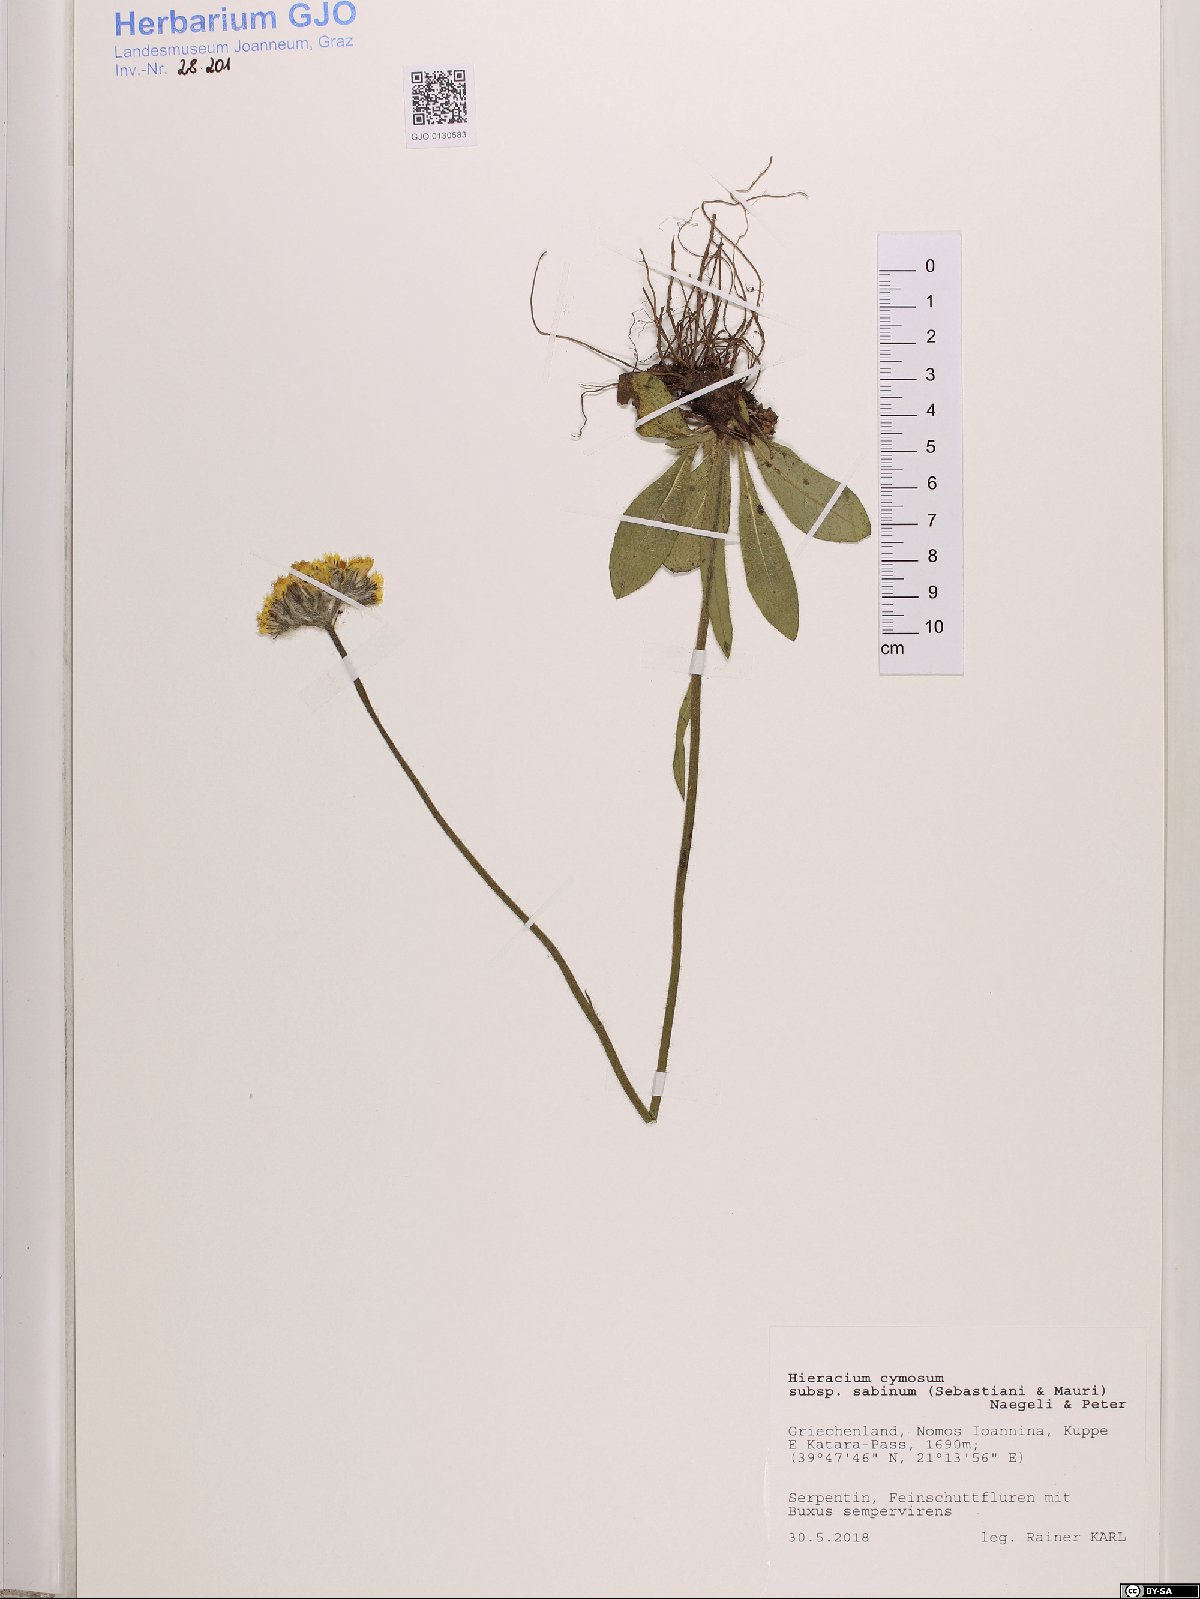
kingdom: Plantae
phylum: Tracheophyta
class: Magnoliopsida
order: Asterales
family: Asteraceae
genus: Pilosella
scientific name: Pilosella cymosa
